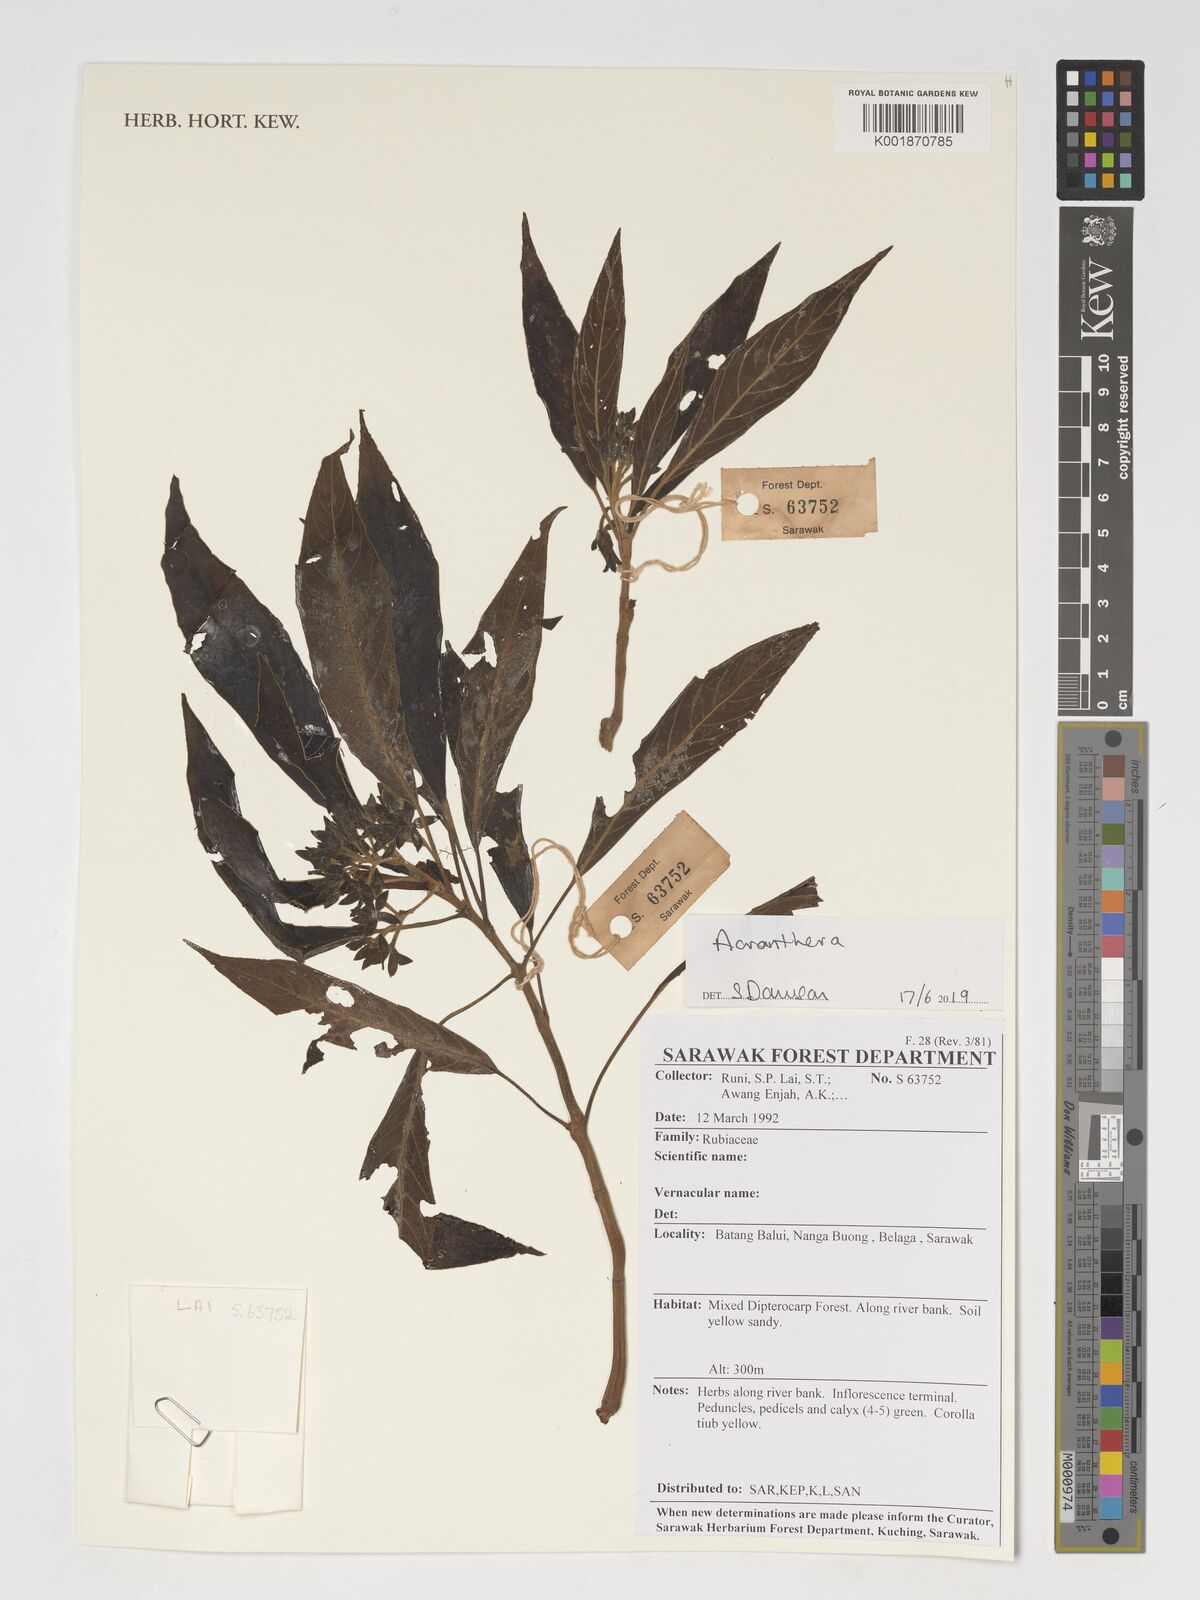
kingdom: Plantae
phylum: Tracheophyta
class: Magnoliopsida
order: Gentianales
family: Rubiaceae
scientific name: Rubiaceae
